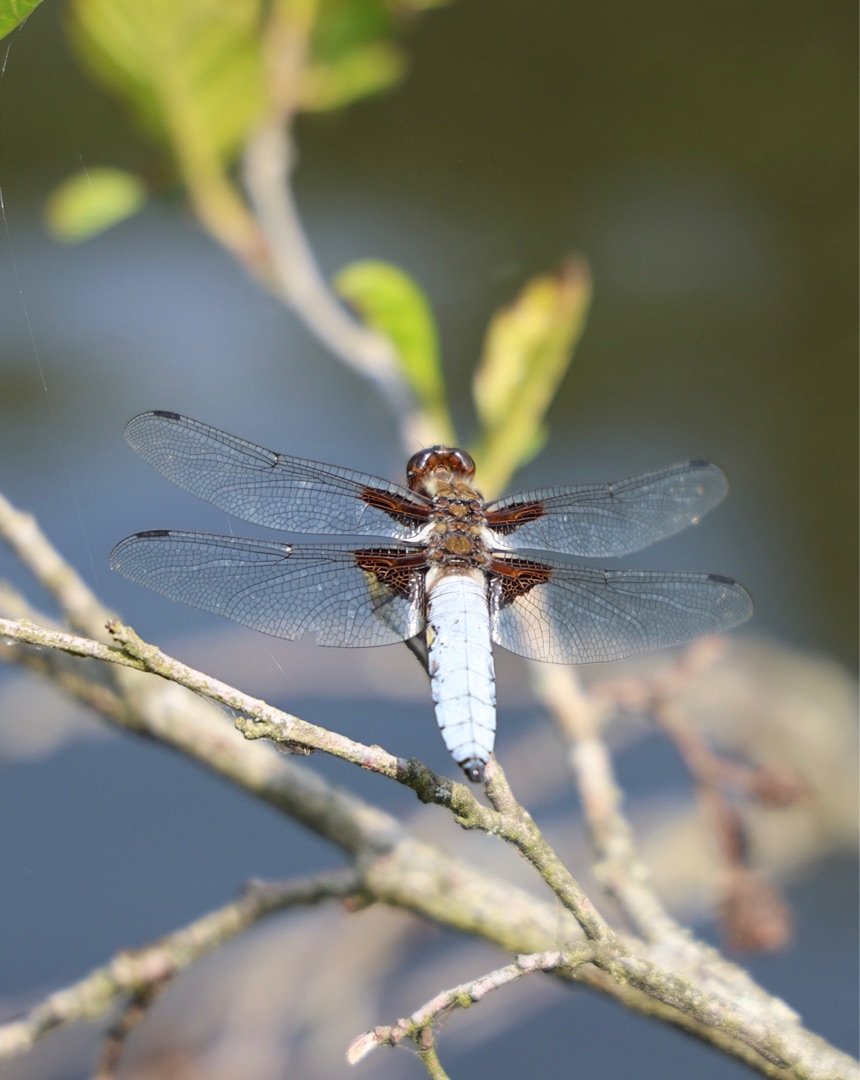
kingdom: Animalia
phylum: Arthropoda
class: Insecta
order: Odonata
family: Libellulidae
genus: Libellula
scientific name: Libellula depressa
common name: Blå libel
